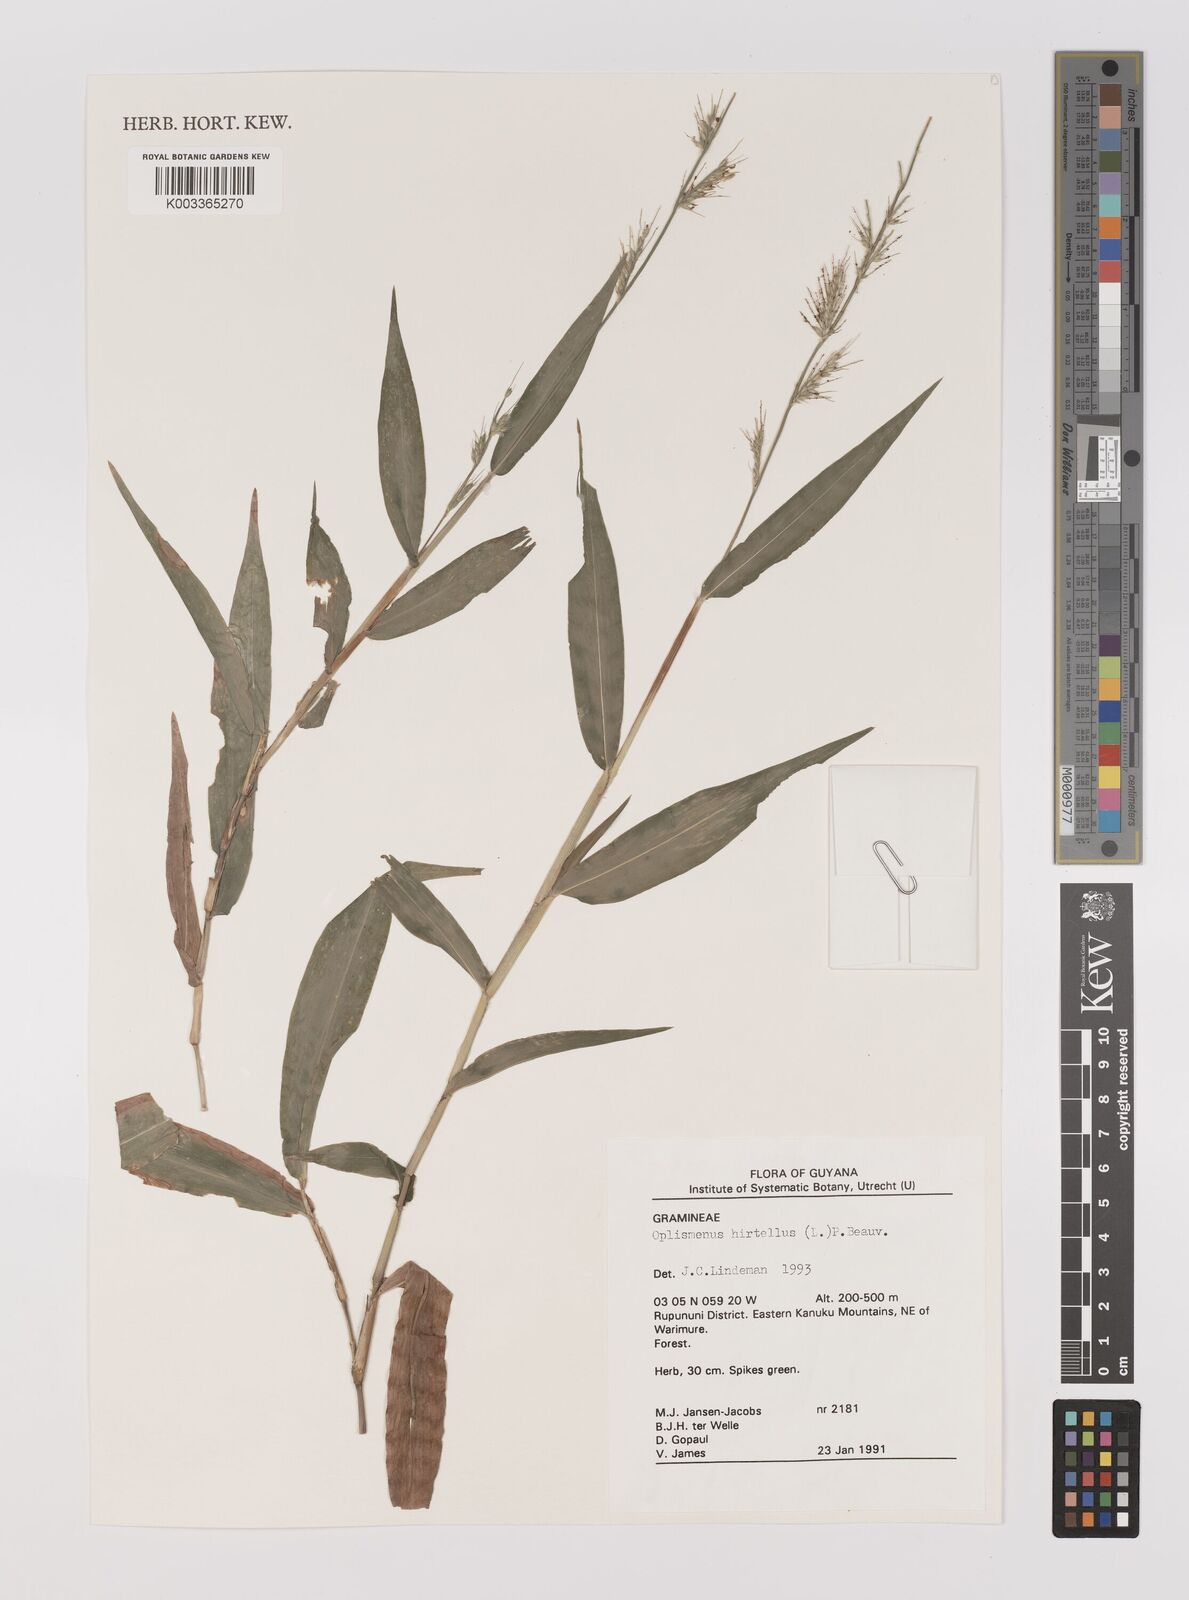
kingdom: Plantae
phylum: Tracheophyta
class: Liliopsida
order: Poales
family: Poaceae
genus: Oplismenus
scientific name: Oplismenus hirtellus
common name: Basketgrass
